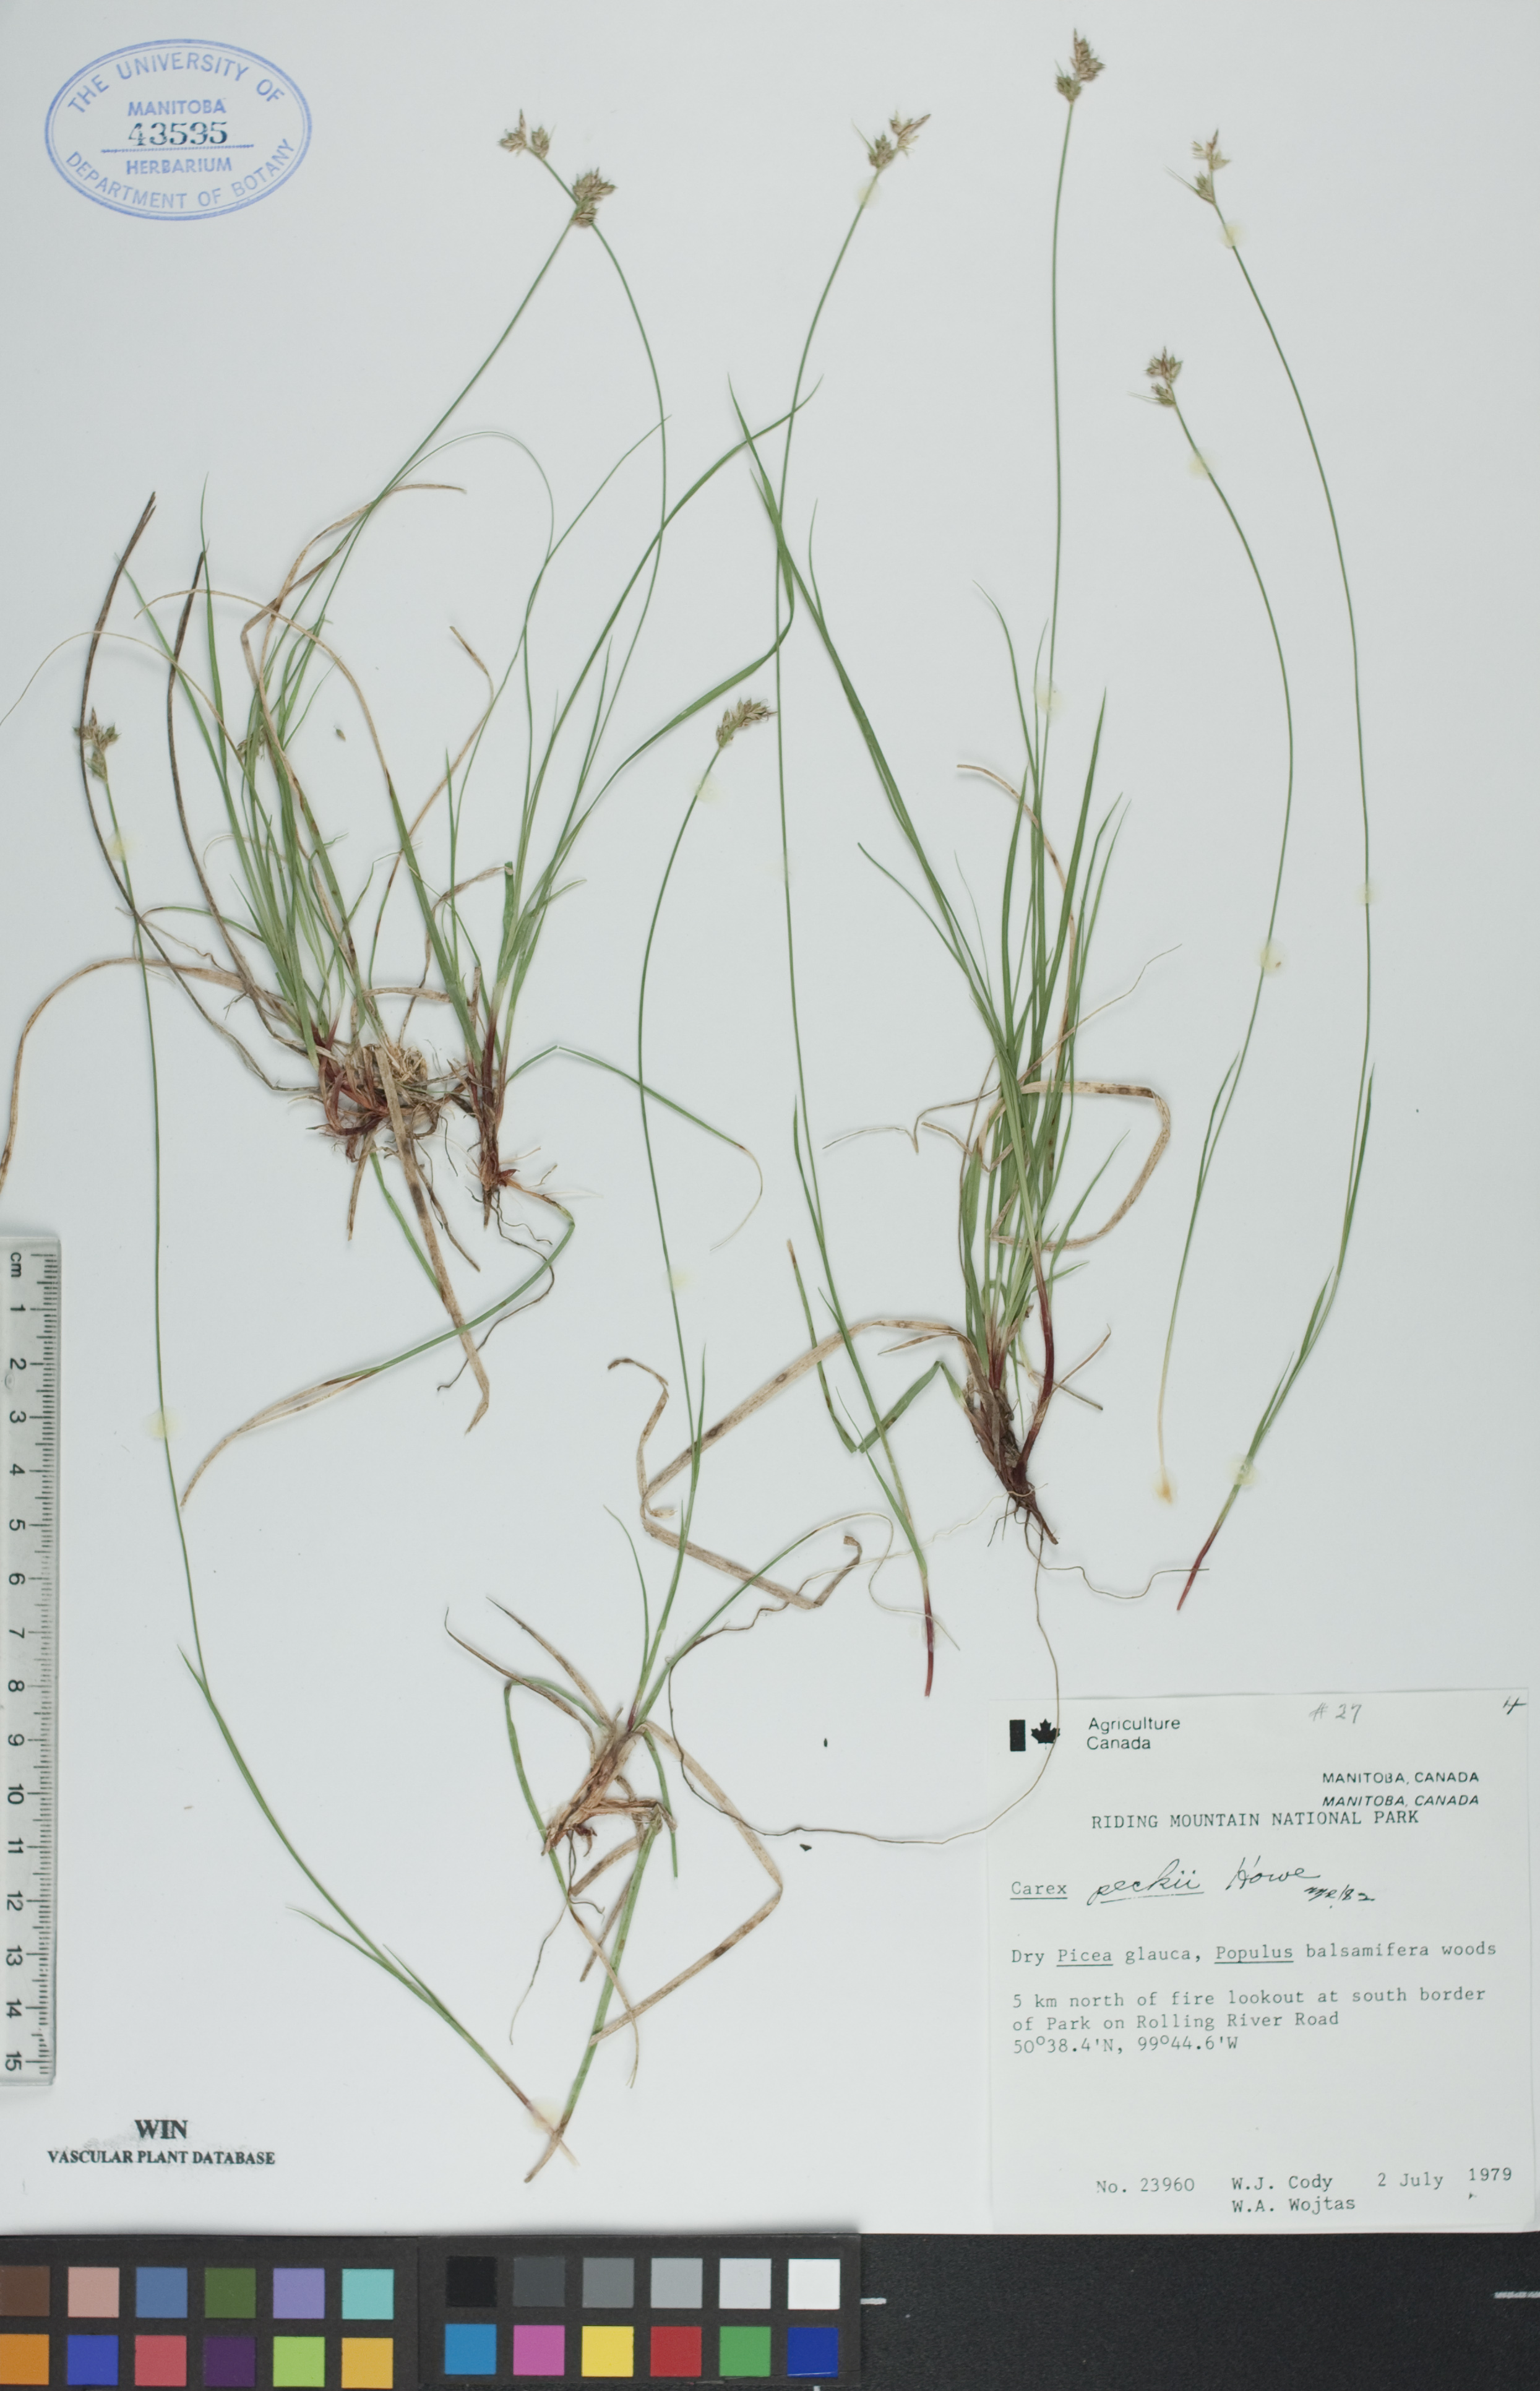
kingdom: Plantae
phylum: Tracheophyta
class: Liliopsida
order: Poales
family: Cyperaceae
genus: Carex
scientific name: Carex peckii
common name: Peck's oak sedge
